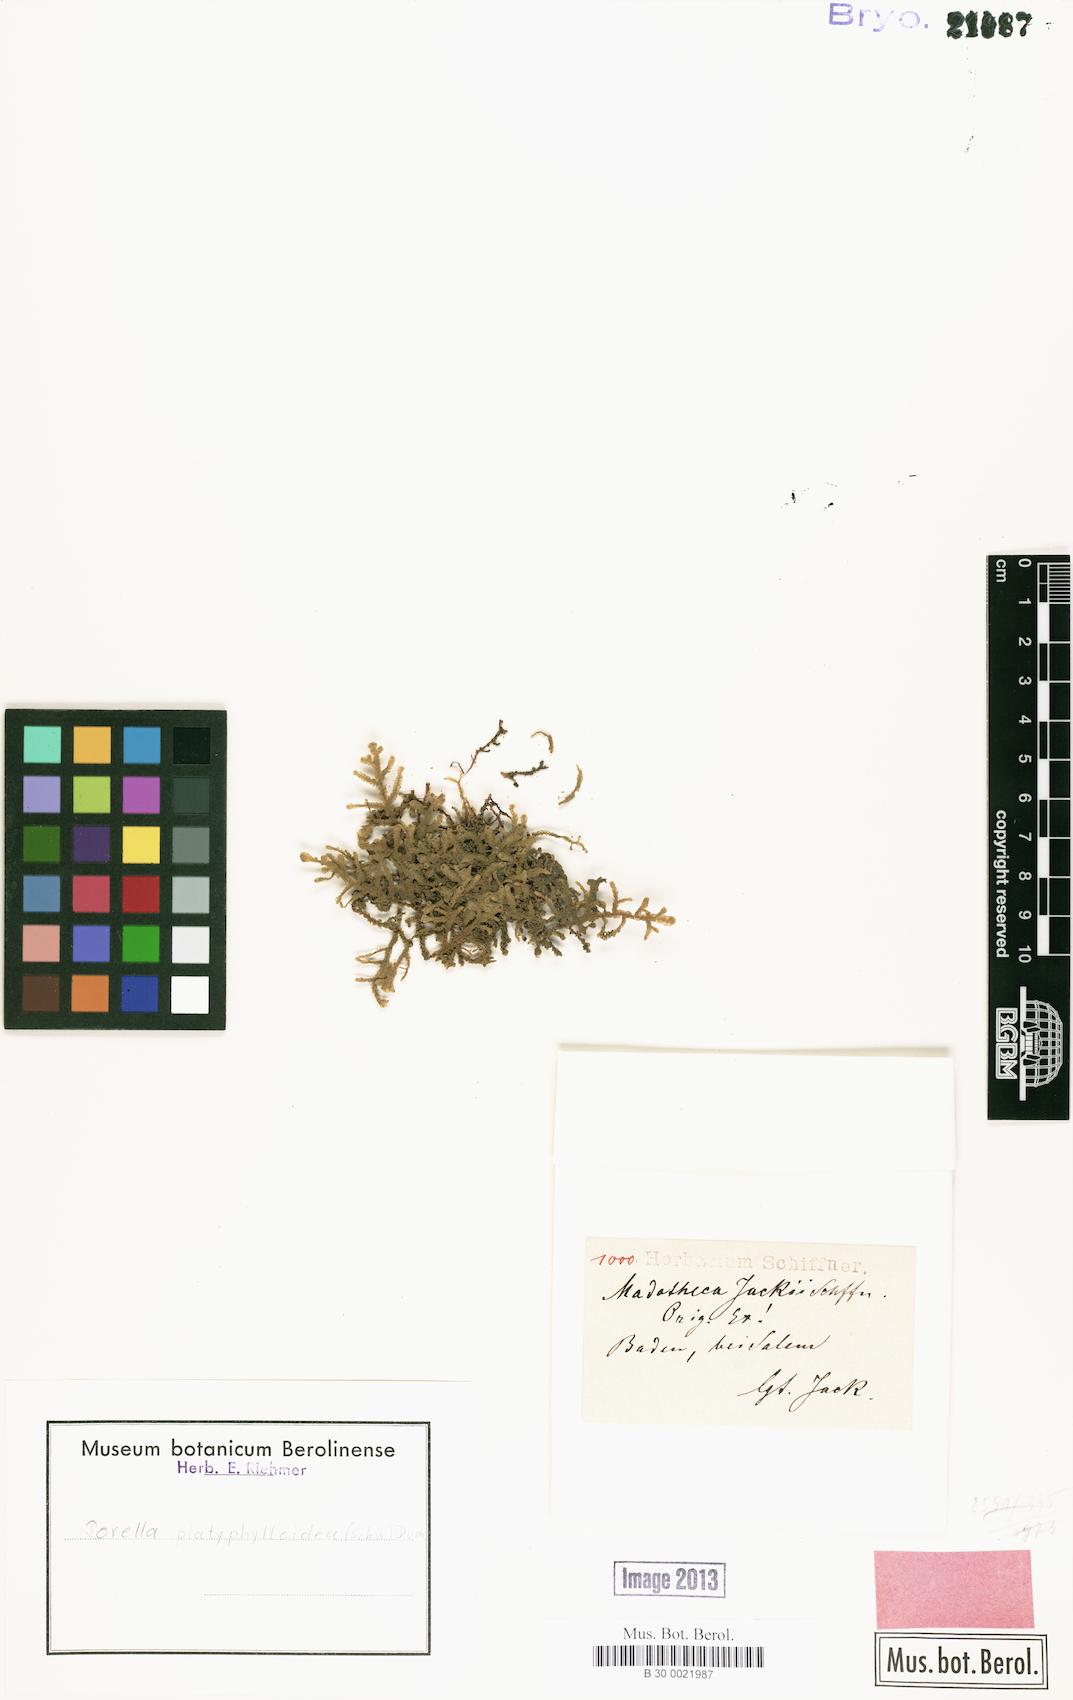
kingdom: Plantae
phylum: Marchantiophyta
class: Jungermanniopsida
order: Porellales
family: Porellaceae
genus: Porella
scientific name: Porella platyphylloidea
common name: American wall scalewort
